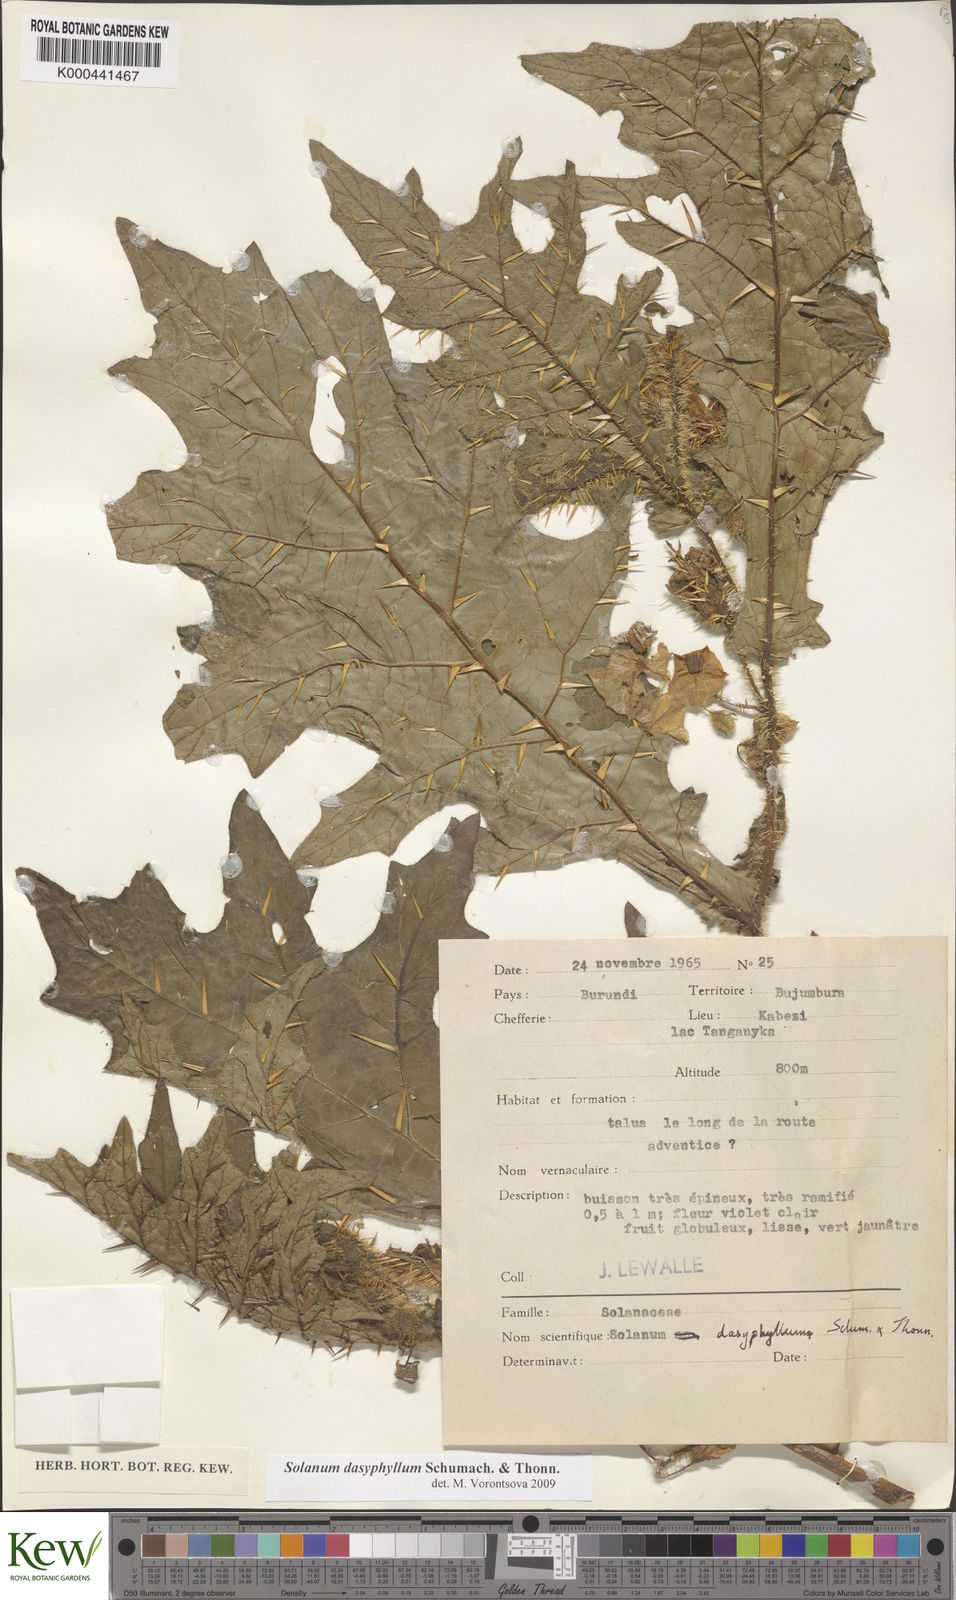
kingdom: Plantae
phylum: Tracheophyta
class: Magnoliopsida
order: Solanales
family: Solanaceae
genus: Solanum
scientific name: Solanum dasyphyllum
